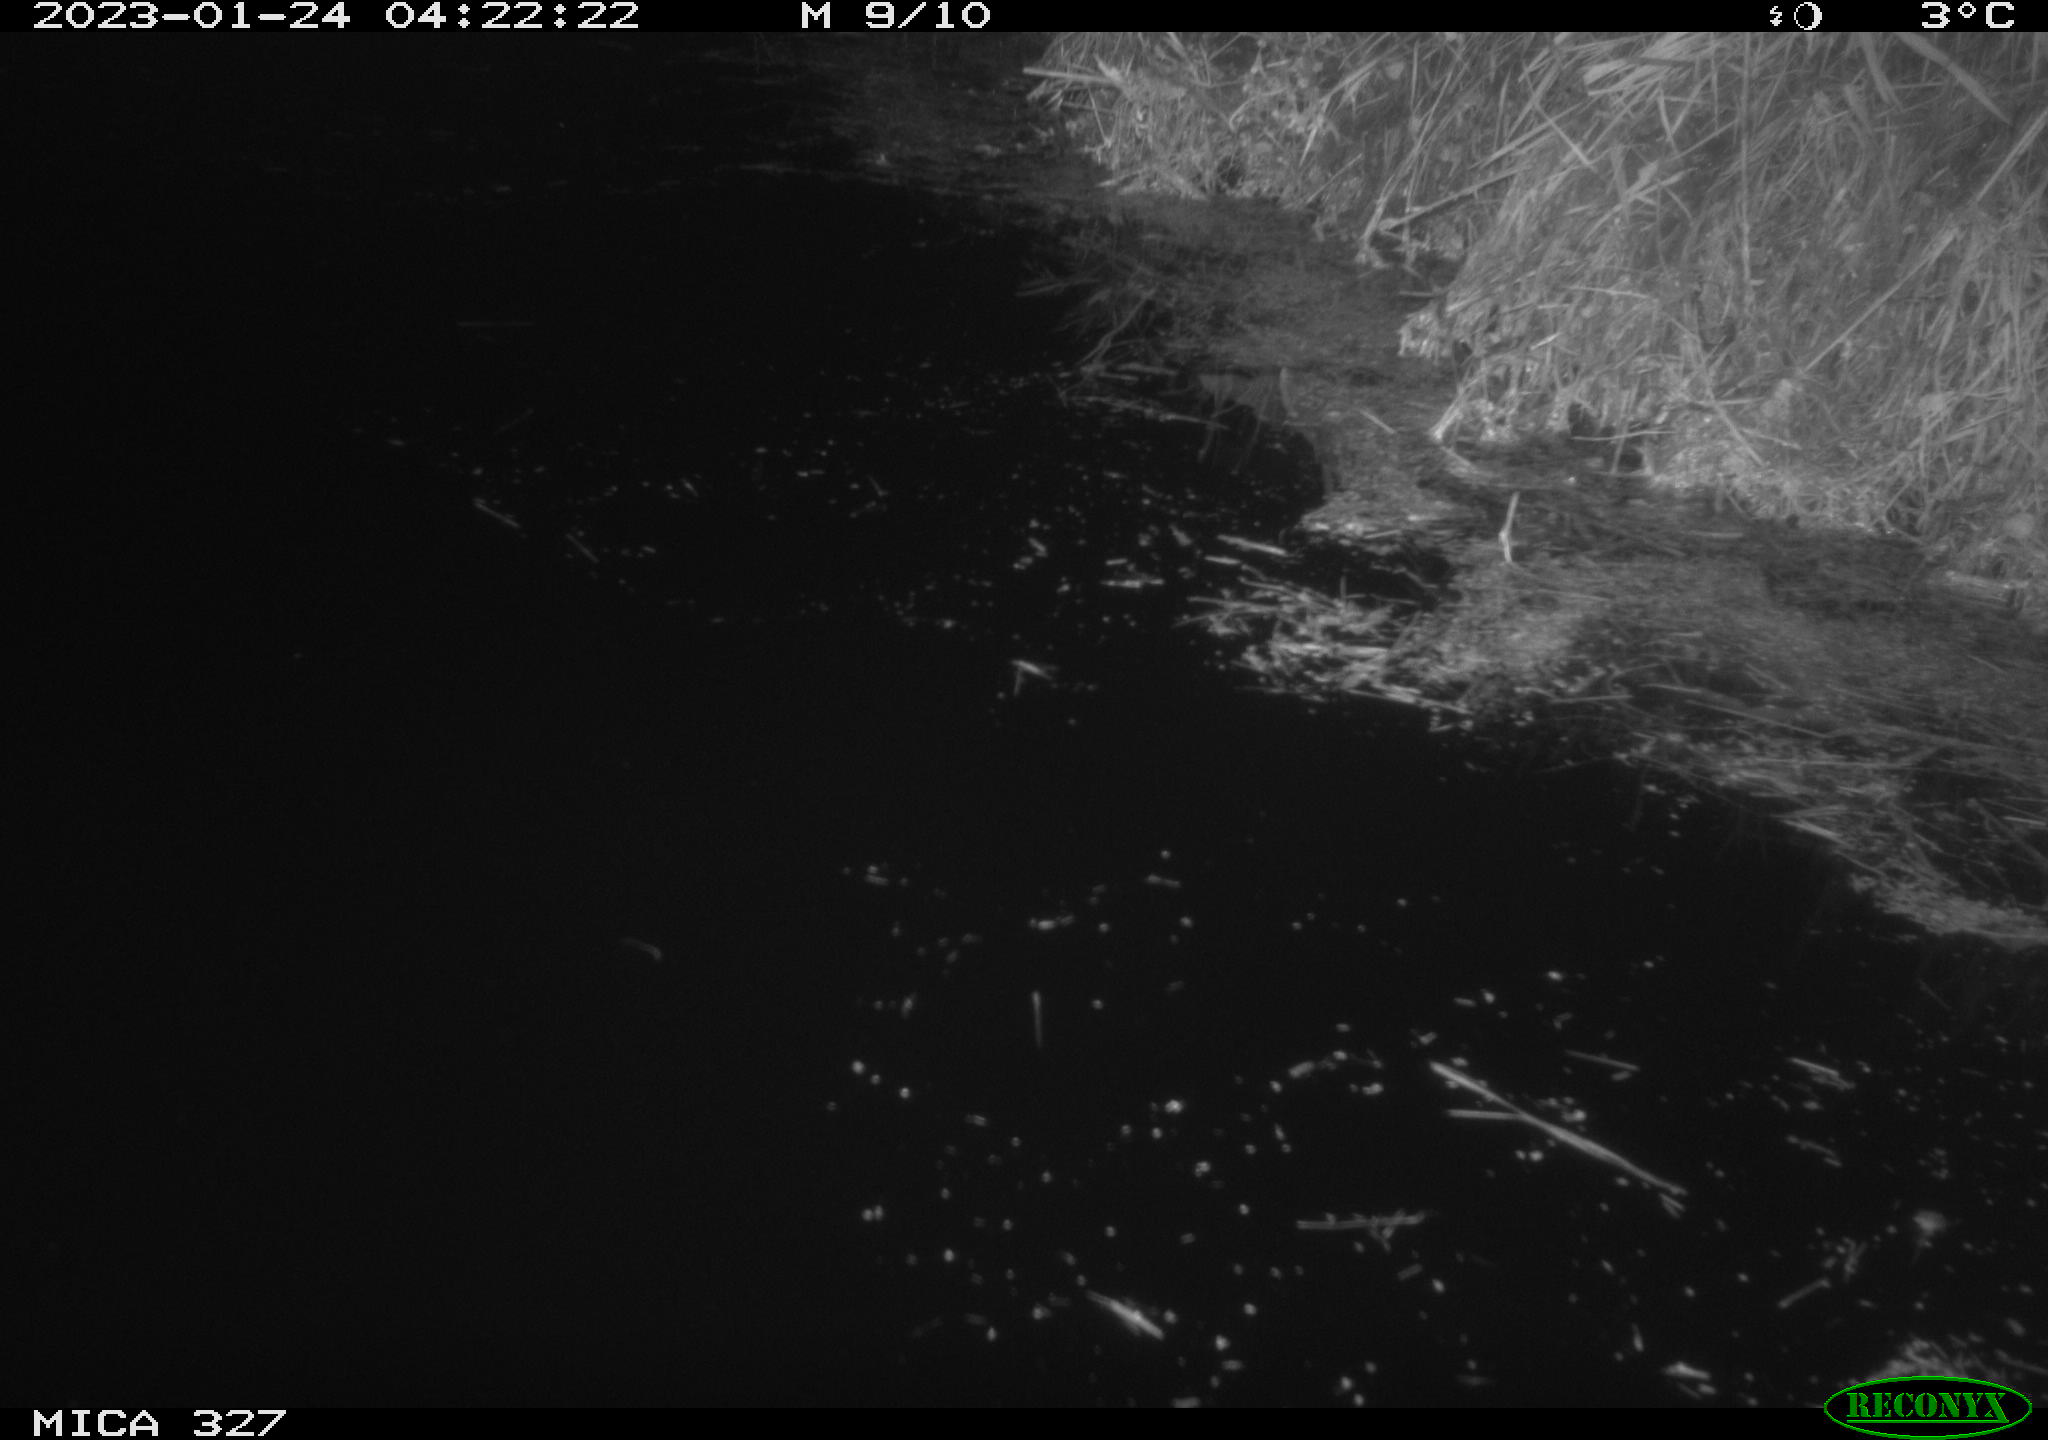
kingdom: Animalia
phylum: Chordata
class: Mammalia
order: Rodentia
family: Cricetidae
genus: Ondatra
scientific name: Ondatra zibethicus
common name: Muskrat
